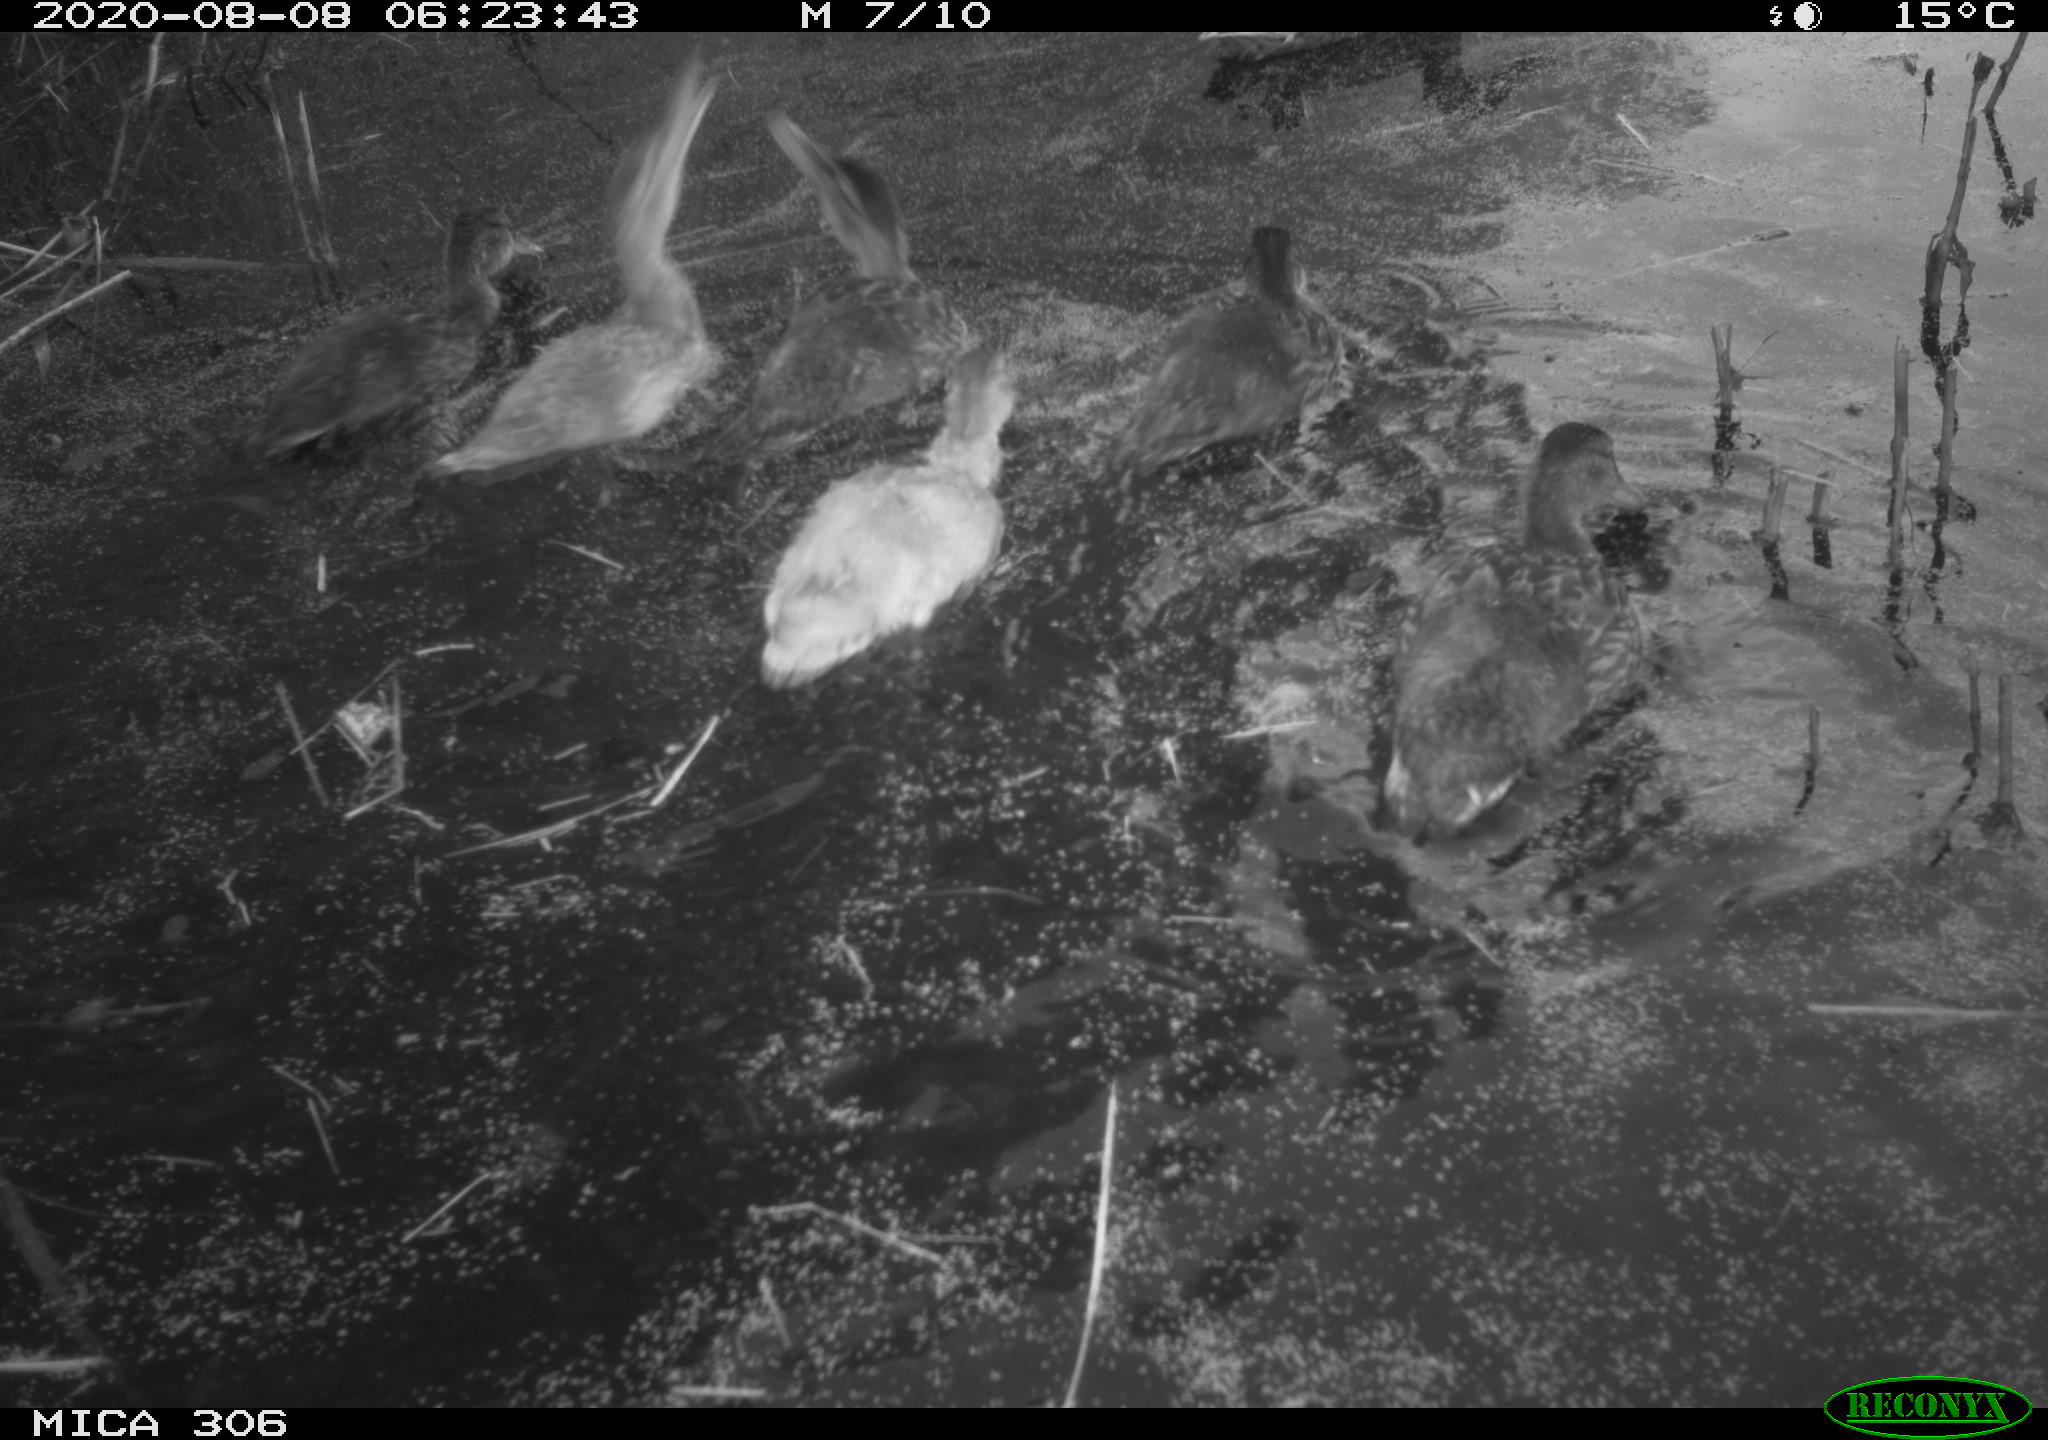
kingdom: Animalia
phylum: Chordata
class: Aves
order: Anseriformes
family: Anatidae
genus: Anas
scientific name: Anas platyrhynchos
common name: Mallard
